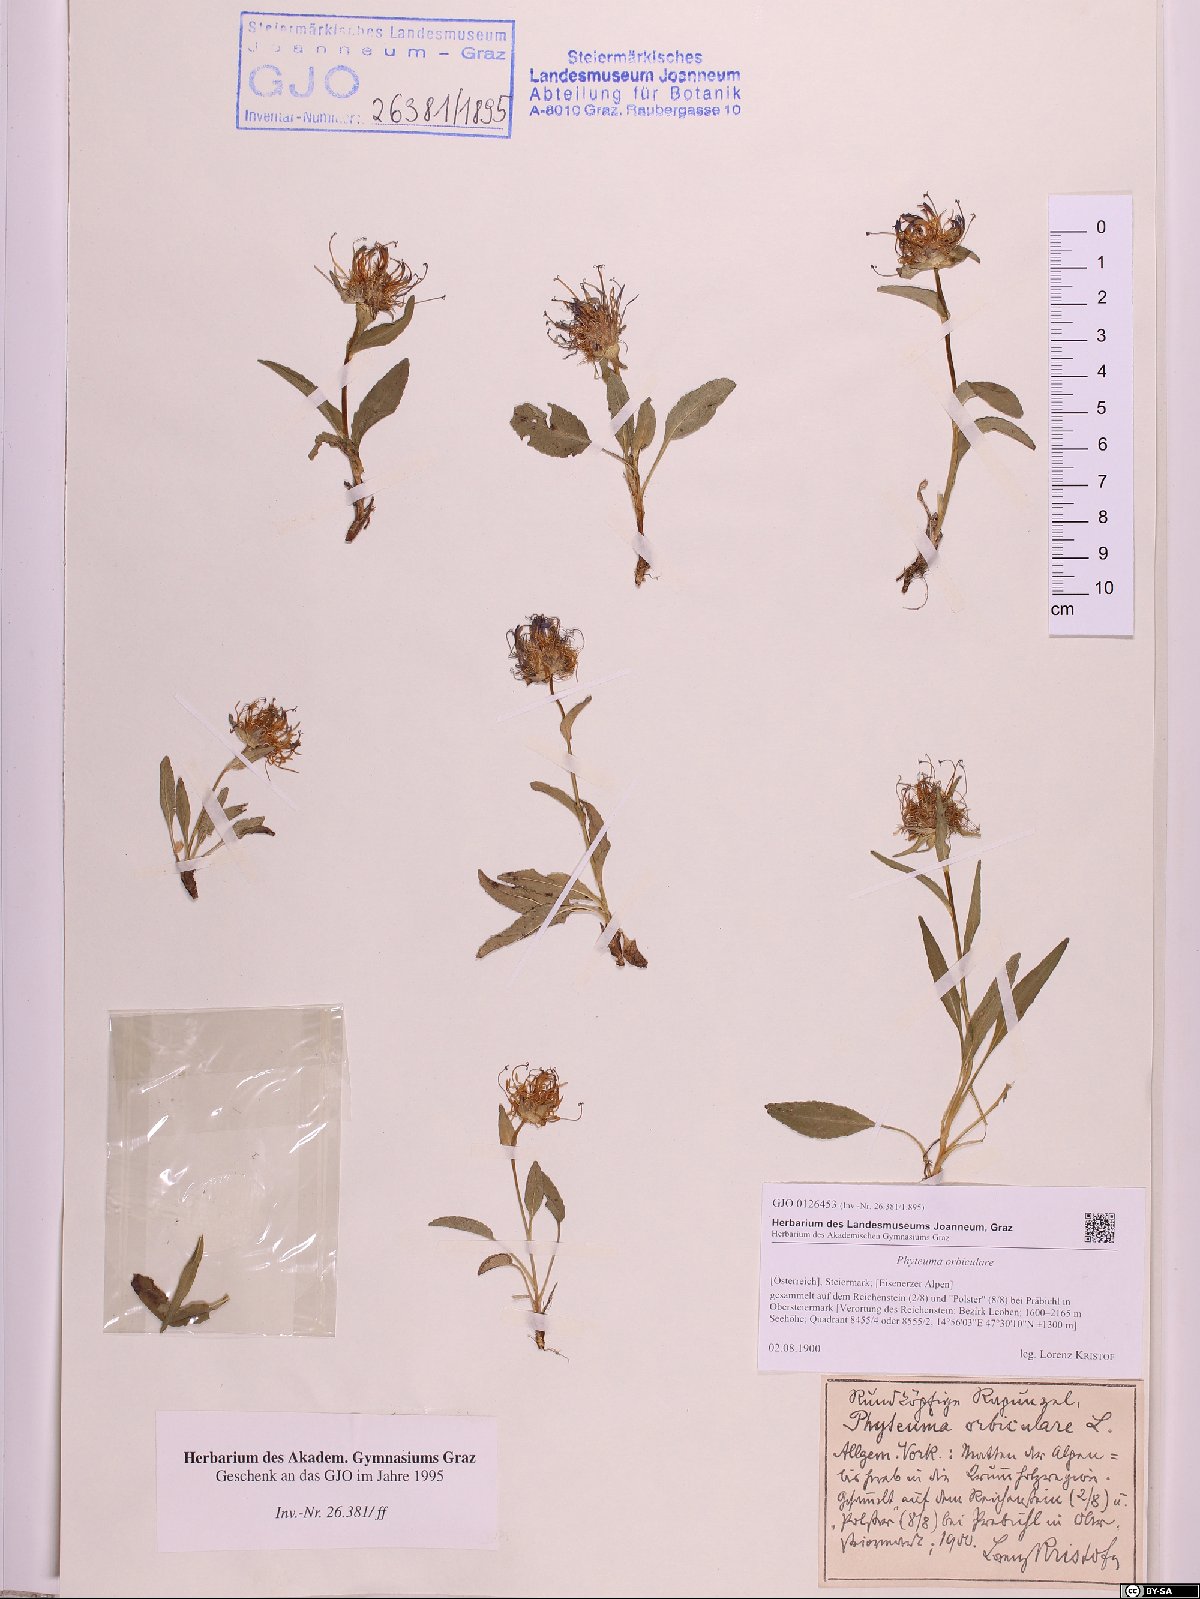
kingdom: Plantae
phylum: Tracheophyta
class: Magnoliopsida
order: Asterales
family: Campanulaceae
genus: Phyteuma
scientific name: Phyteuma orbiculare
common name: Round-headed rampion
